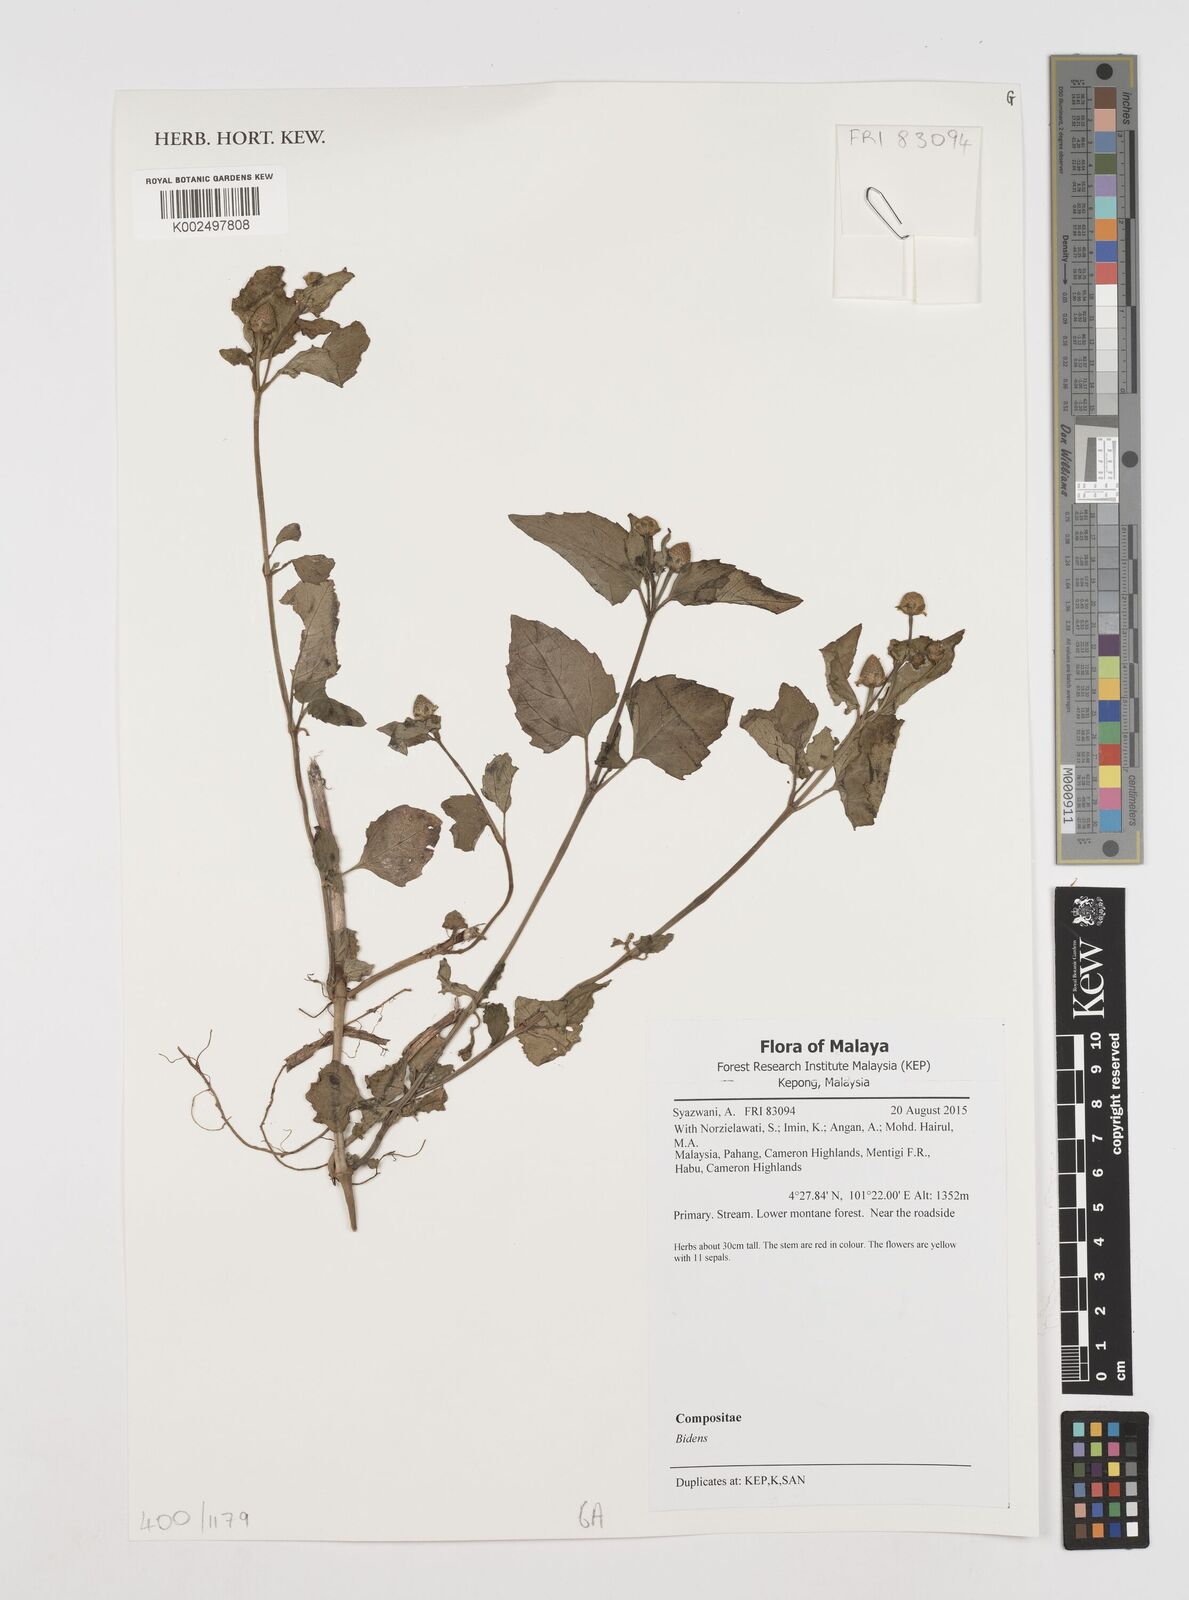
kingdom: Plantae
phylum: Tracheophyta
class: Magnoliopsida
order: Asterales
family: Asteraceae
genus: Bidens
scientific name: Bidens pilosa
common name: Black-jack
